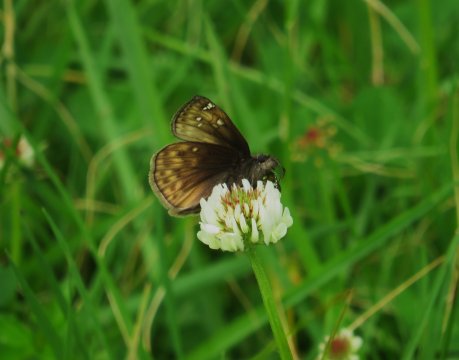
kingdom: Animalia
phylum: Arthropoda
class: Insecta
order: Lepidoptera
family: Hesperiidae
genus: Gesta
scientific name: Gesta
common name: Juvenal's Duskywing
